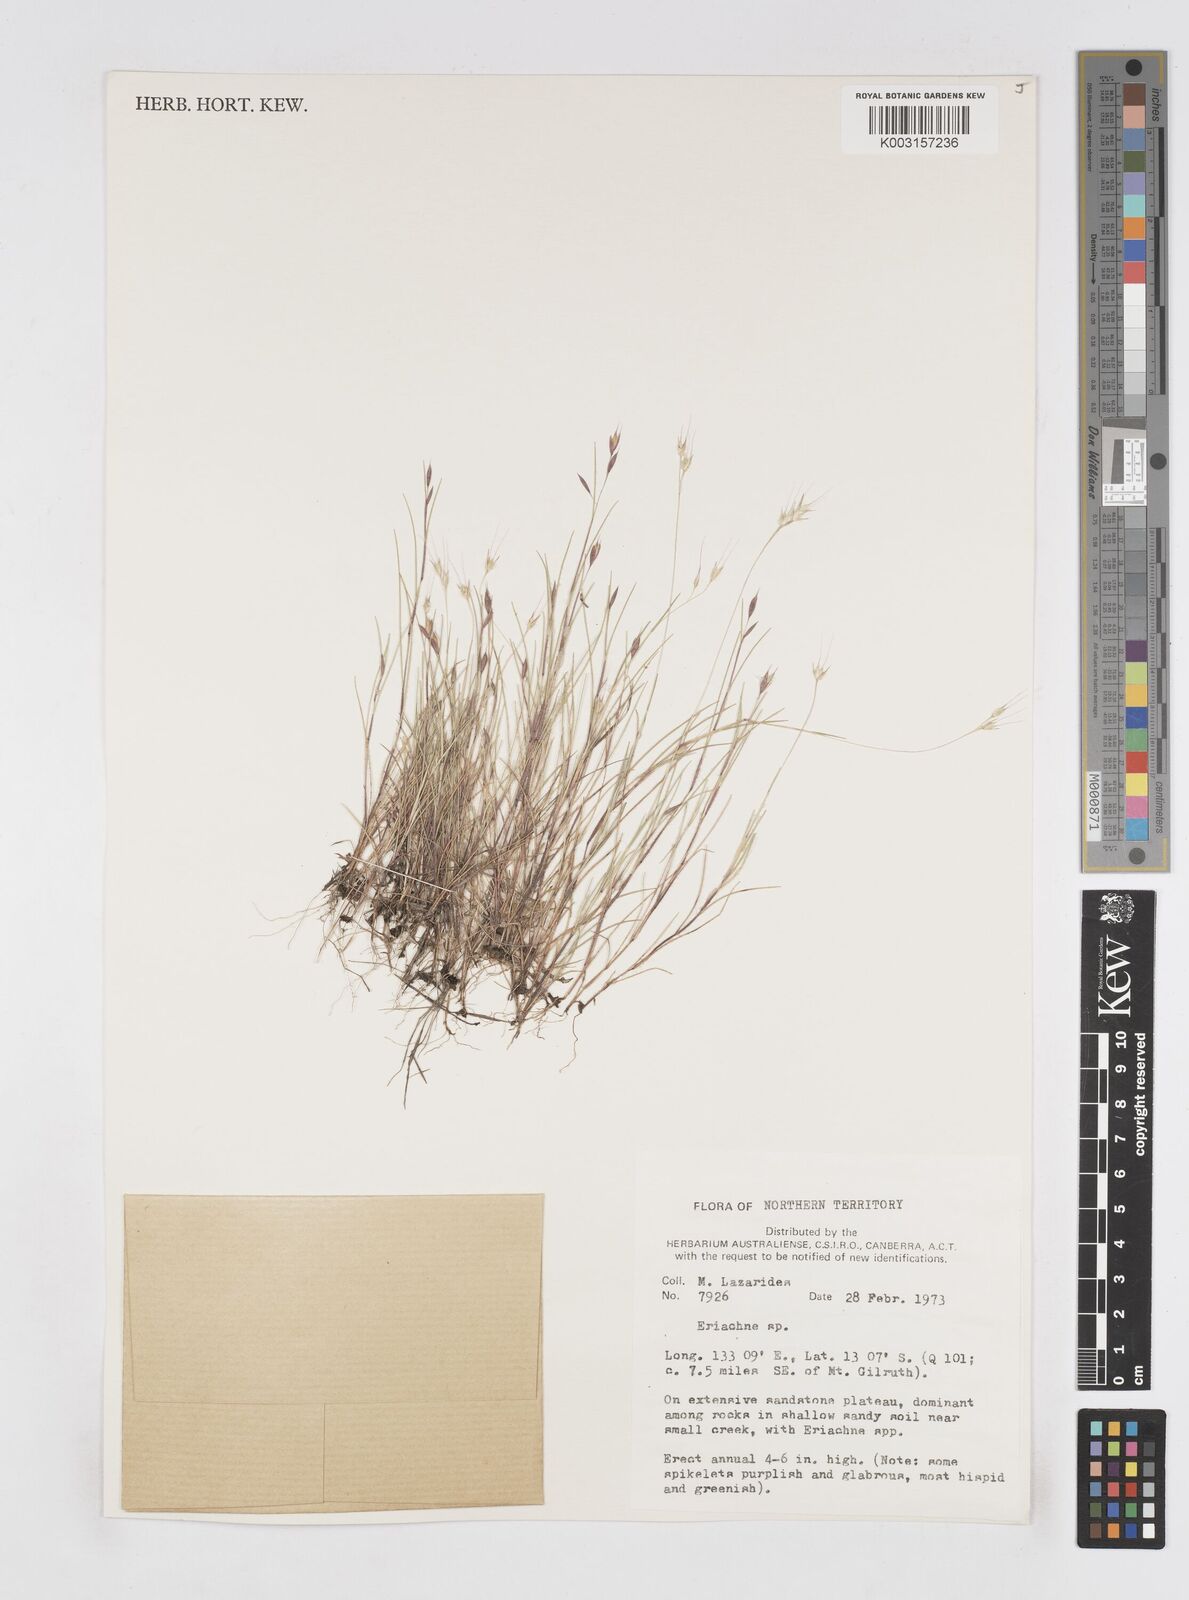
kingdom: Plantae
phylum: Tracheophyta
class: Liliopsida
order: Poales
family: Poaceae
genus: Eriachne
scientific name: Eriachne agrostidea
